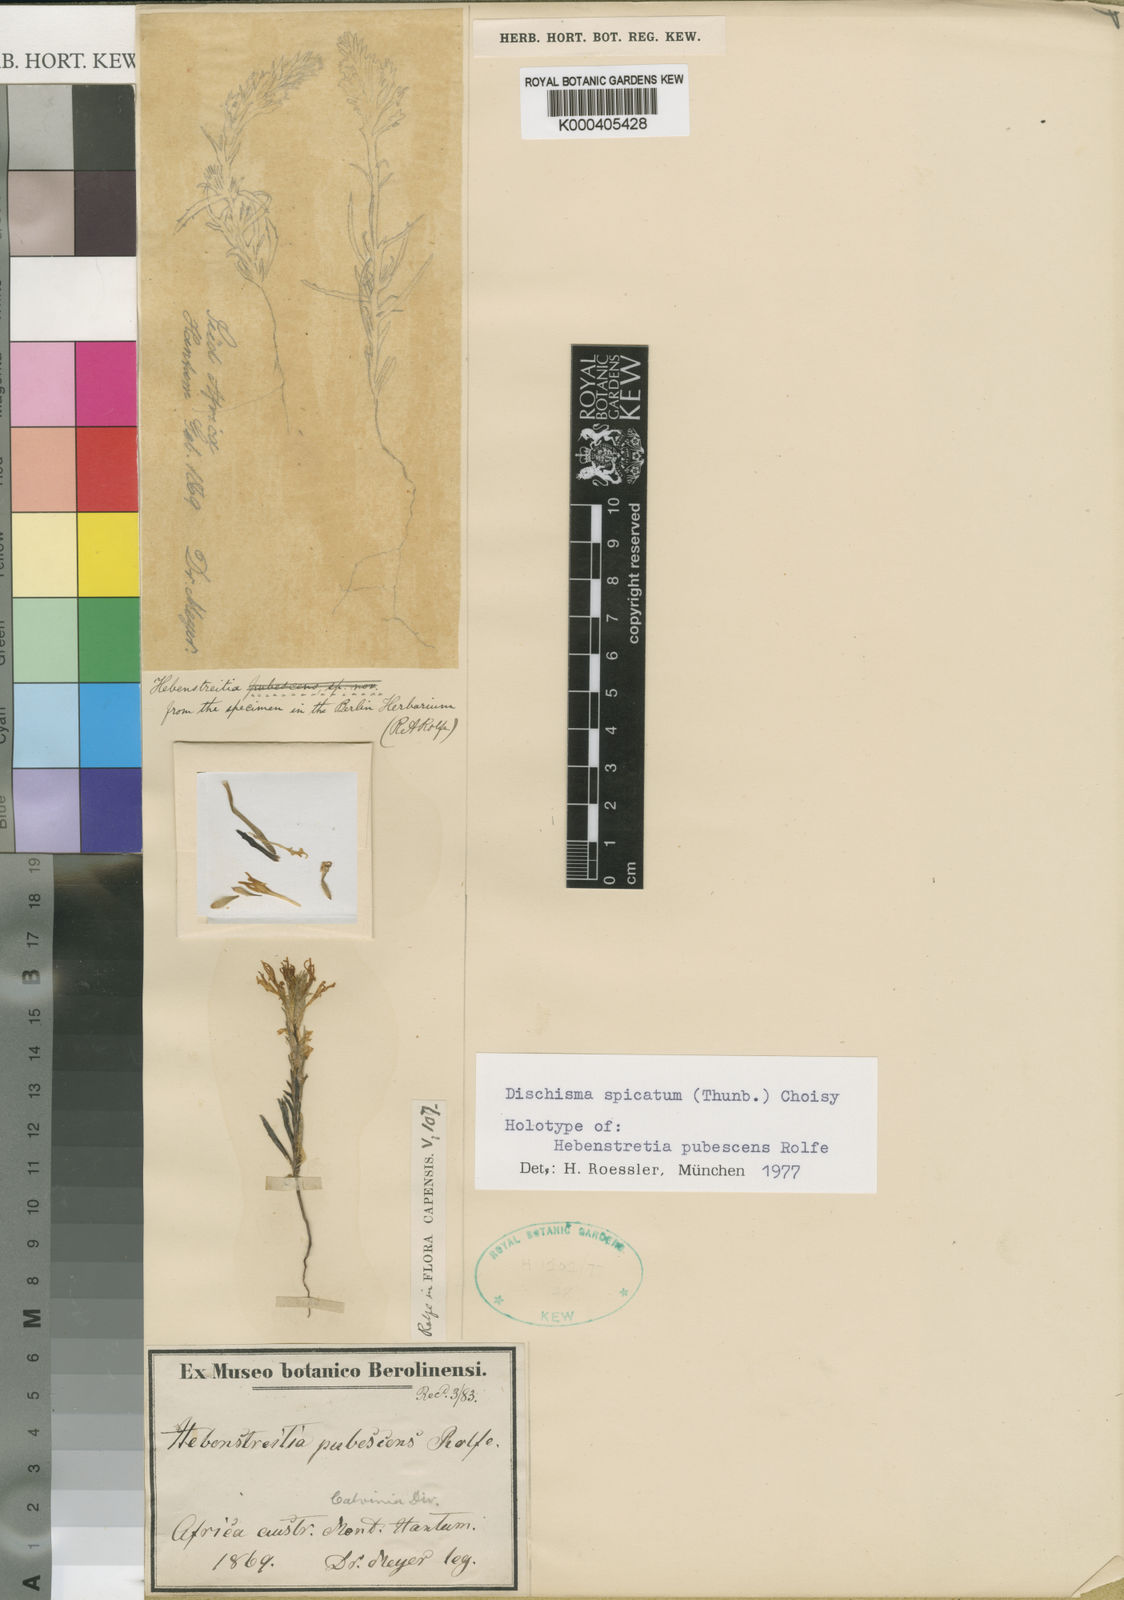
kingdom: Plantae
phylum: Tracheophyta
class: Magnoliopsida
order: Lamiales
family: Scrophulariaceae
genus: Dischisma
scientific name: Dischisma spicatum
